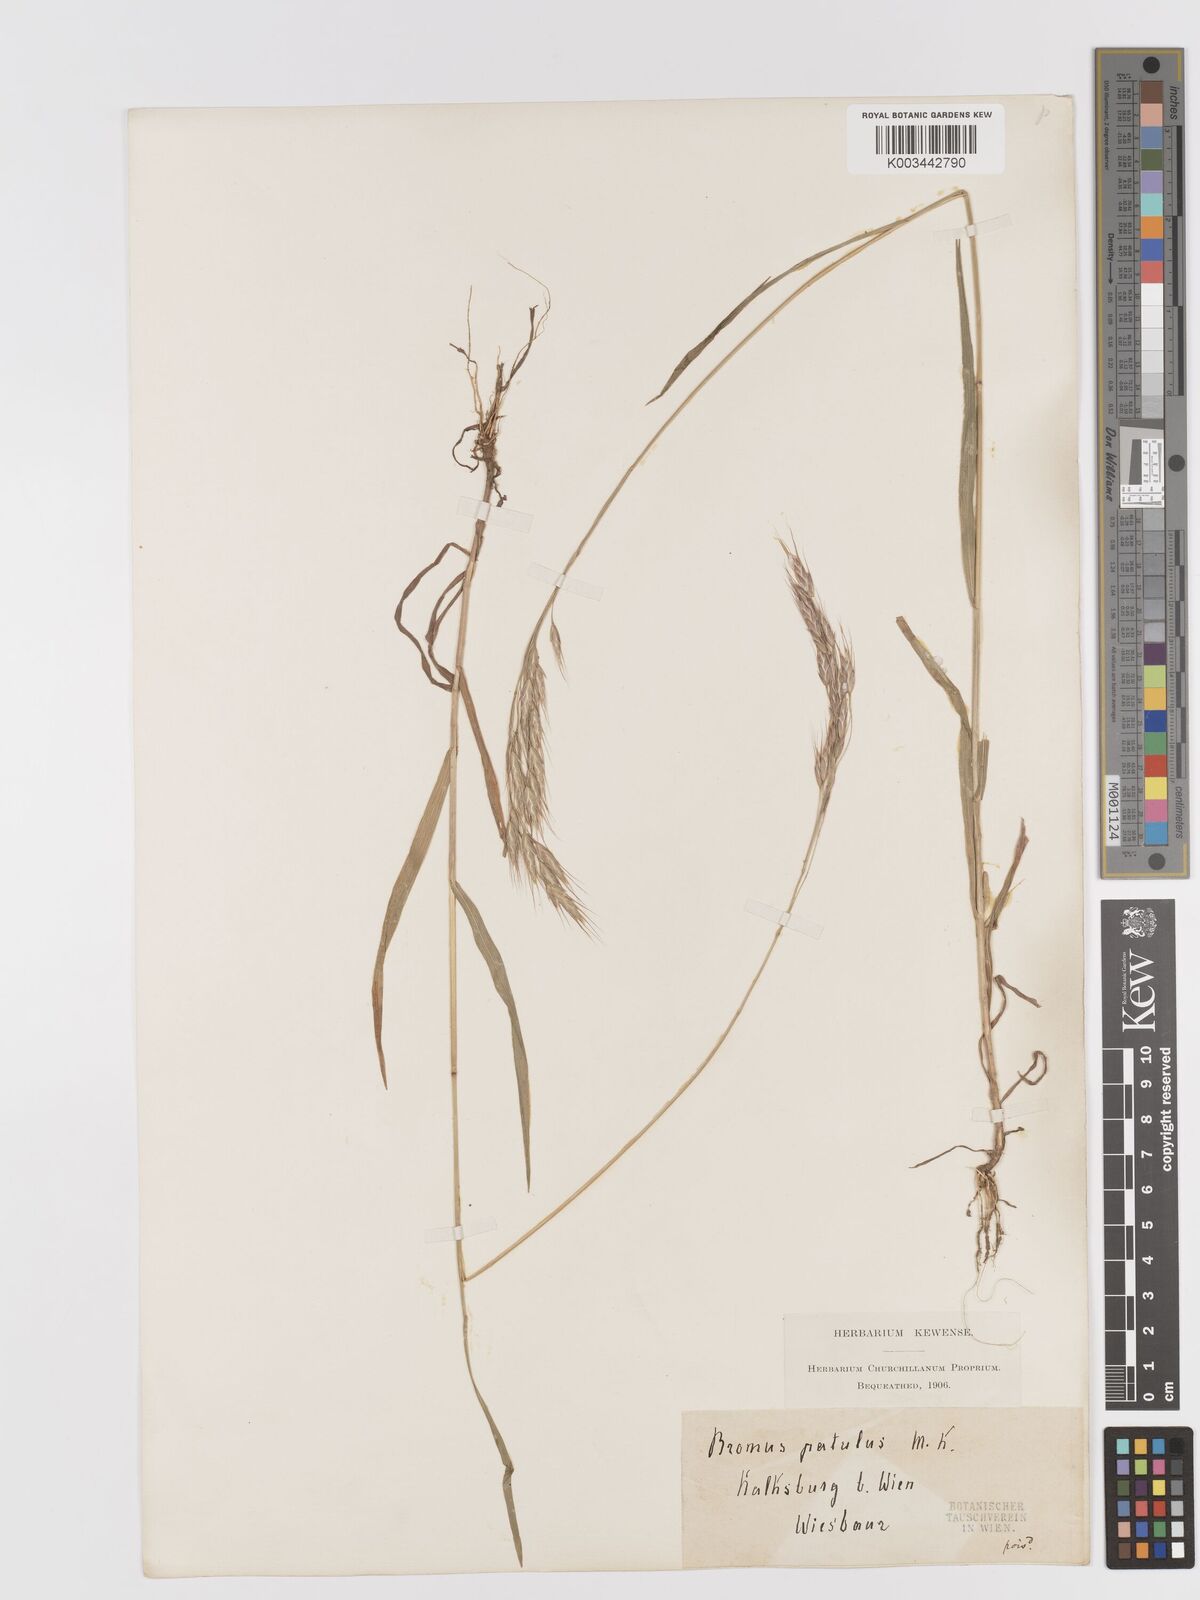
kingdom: Plantae
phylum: Tracheophyta
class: Liliopsida
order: Poales
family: Poaceae
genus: Bromus
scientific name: Bromus japonicus
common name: Japanese brome
